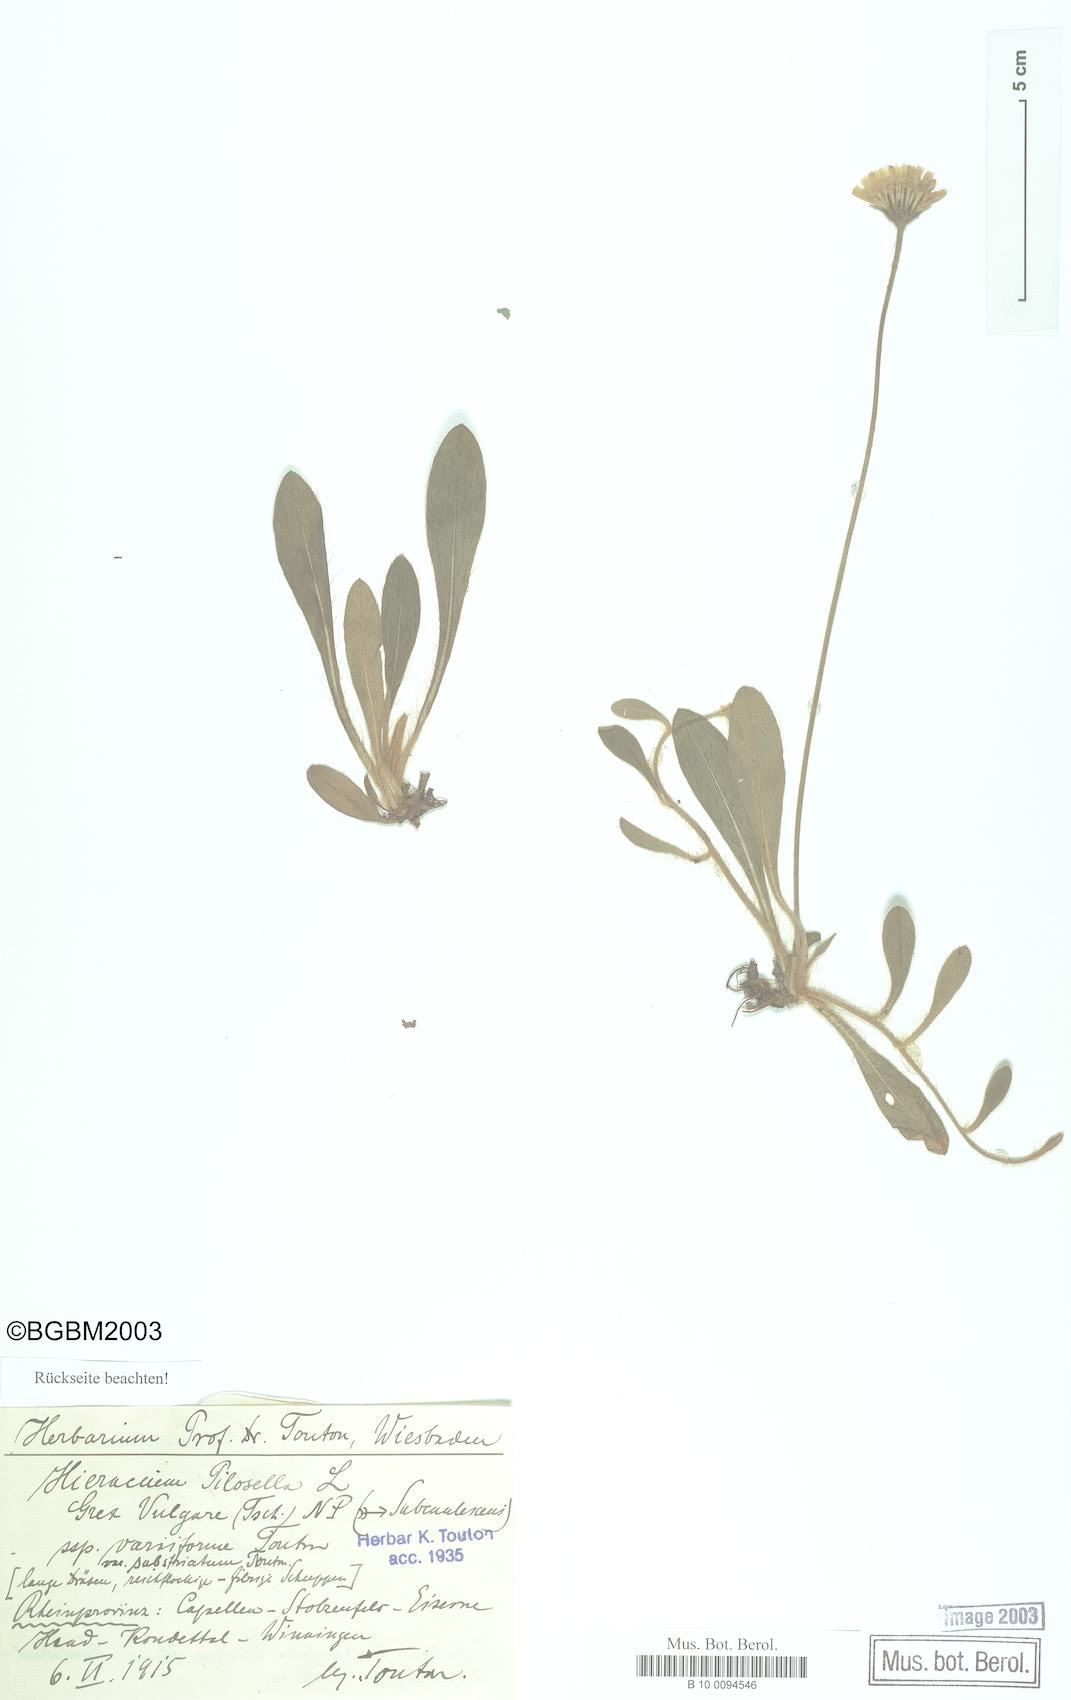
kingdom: Plantae
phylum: Tracheophyta
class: Magnoliopsida
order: Asterales
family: Asteraceae
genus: Pilosella
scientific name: Pilosella officinarum
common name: Mouse-ear hawkweed
